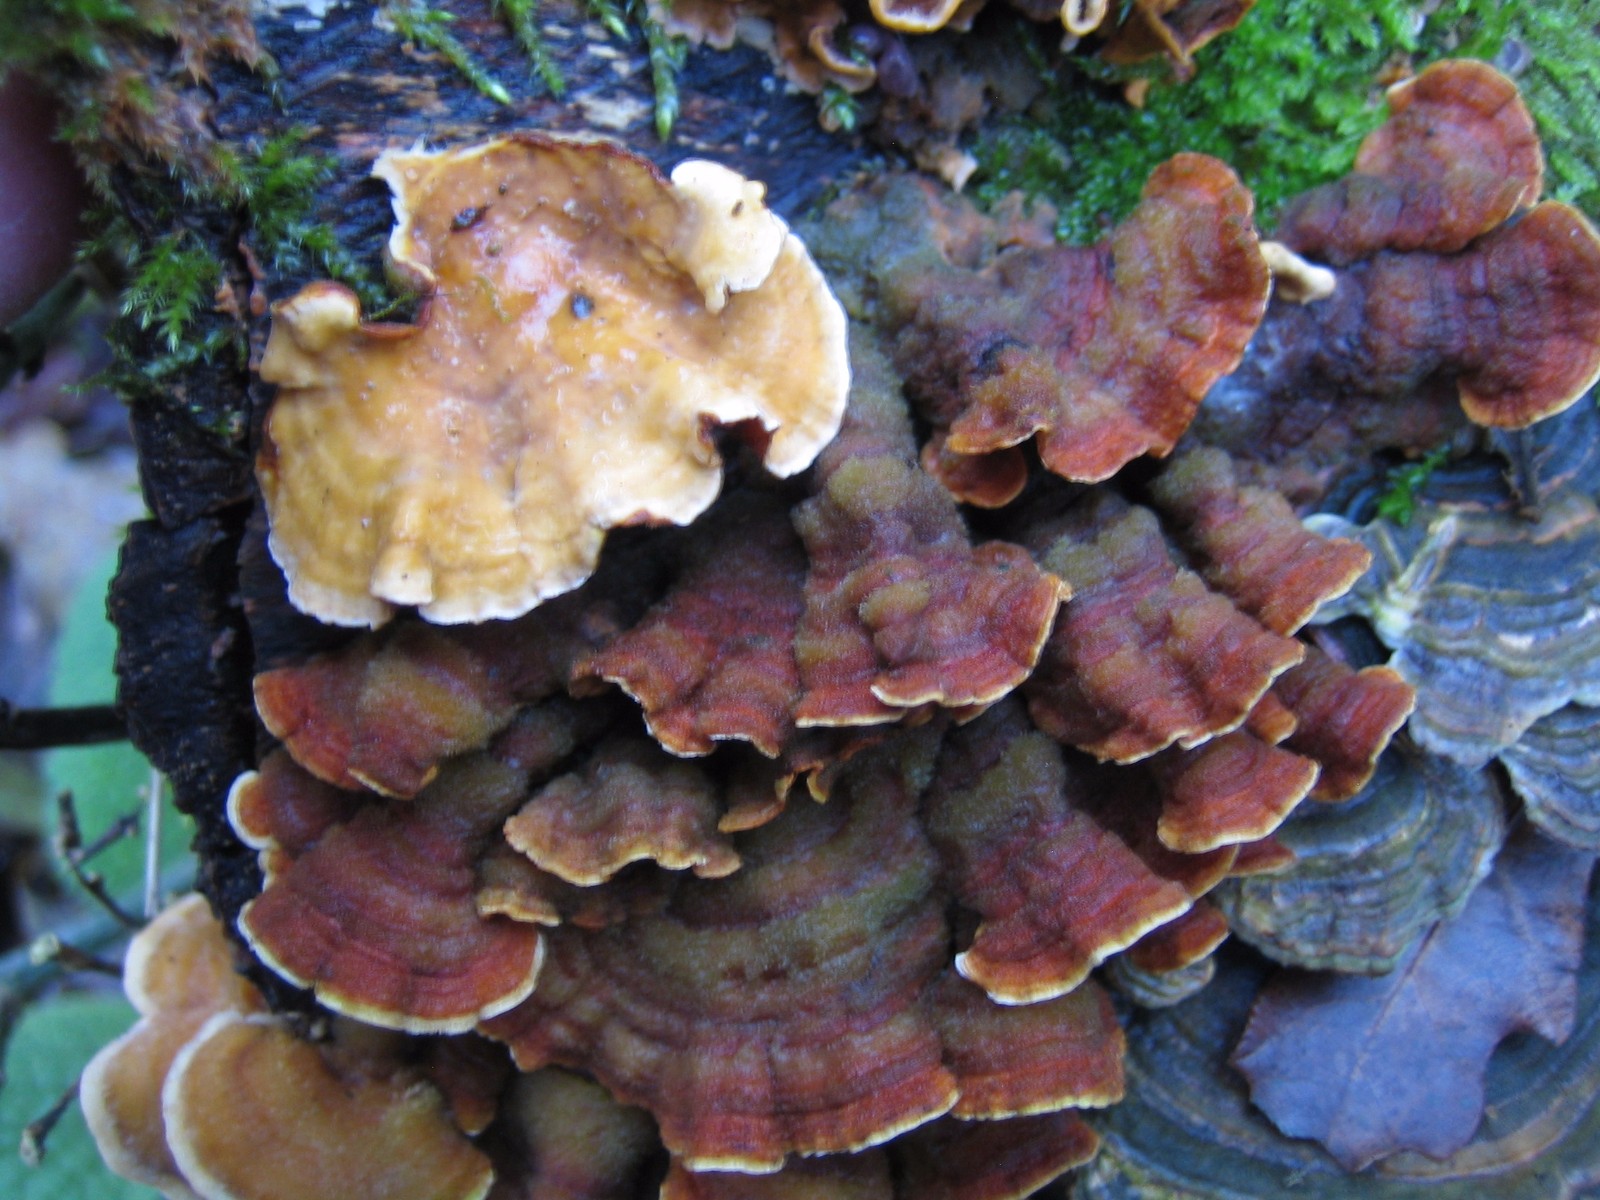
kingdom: Fungi
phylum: Basidiomycota
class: Agaricomycetes
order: Russulales
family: Stereaceae
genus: Stereum
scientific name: Stereum hirsutum
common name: håret lædersvamp
